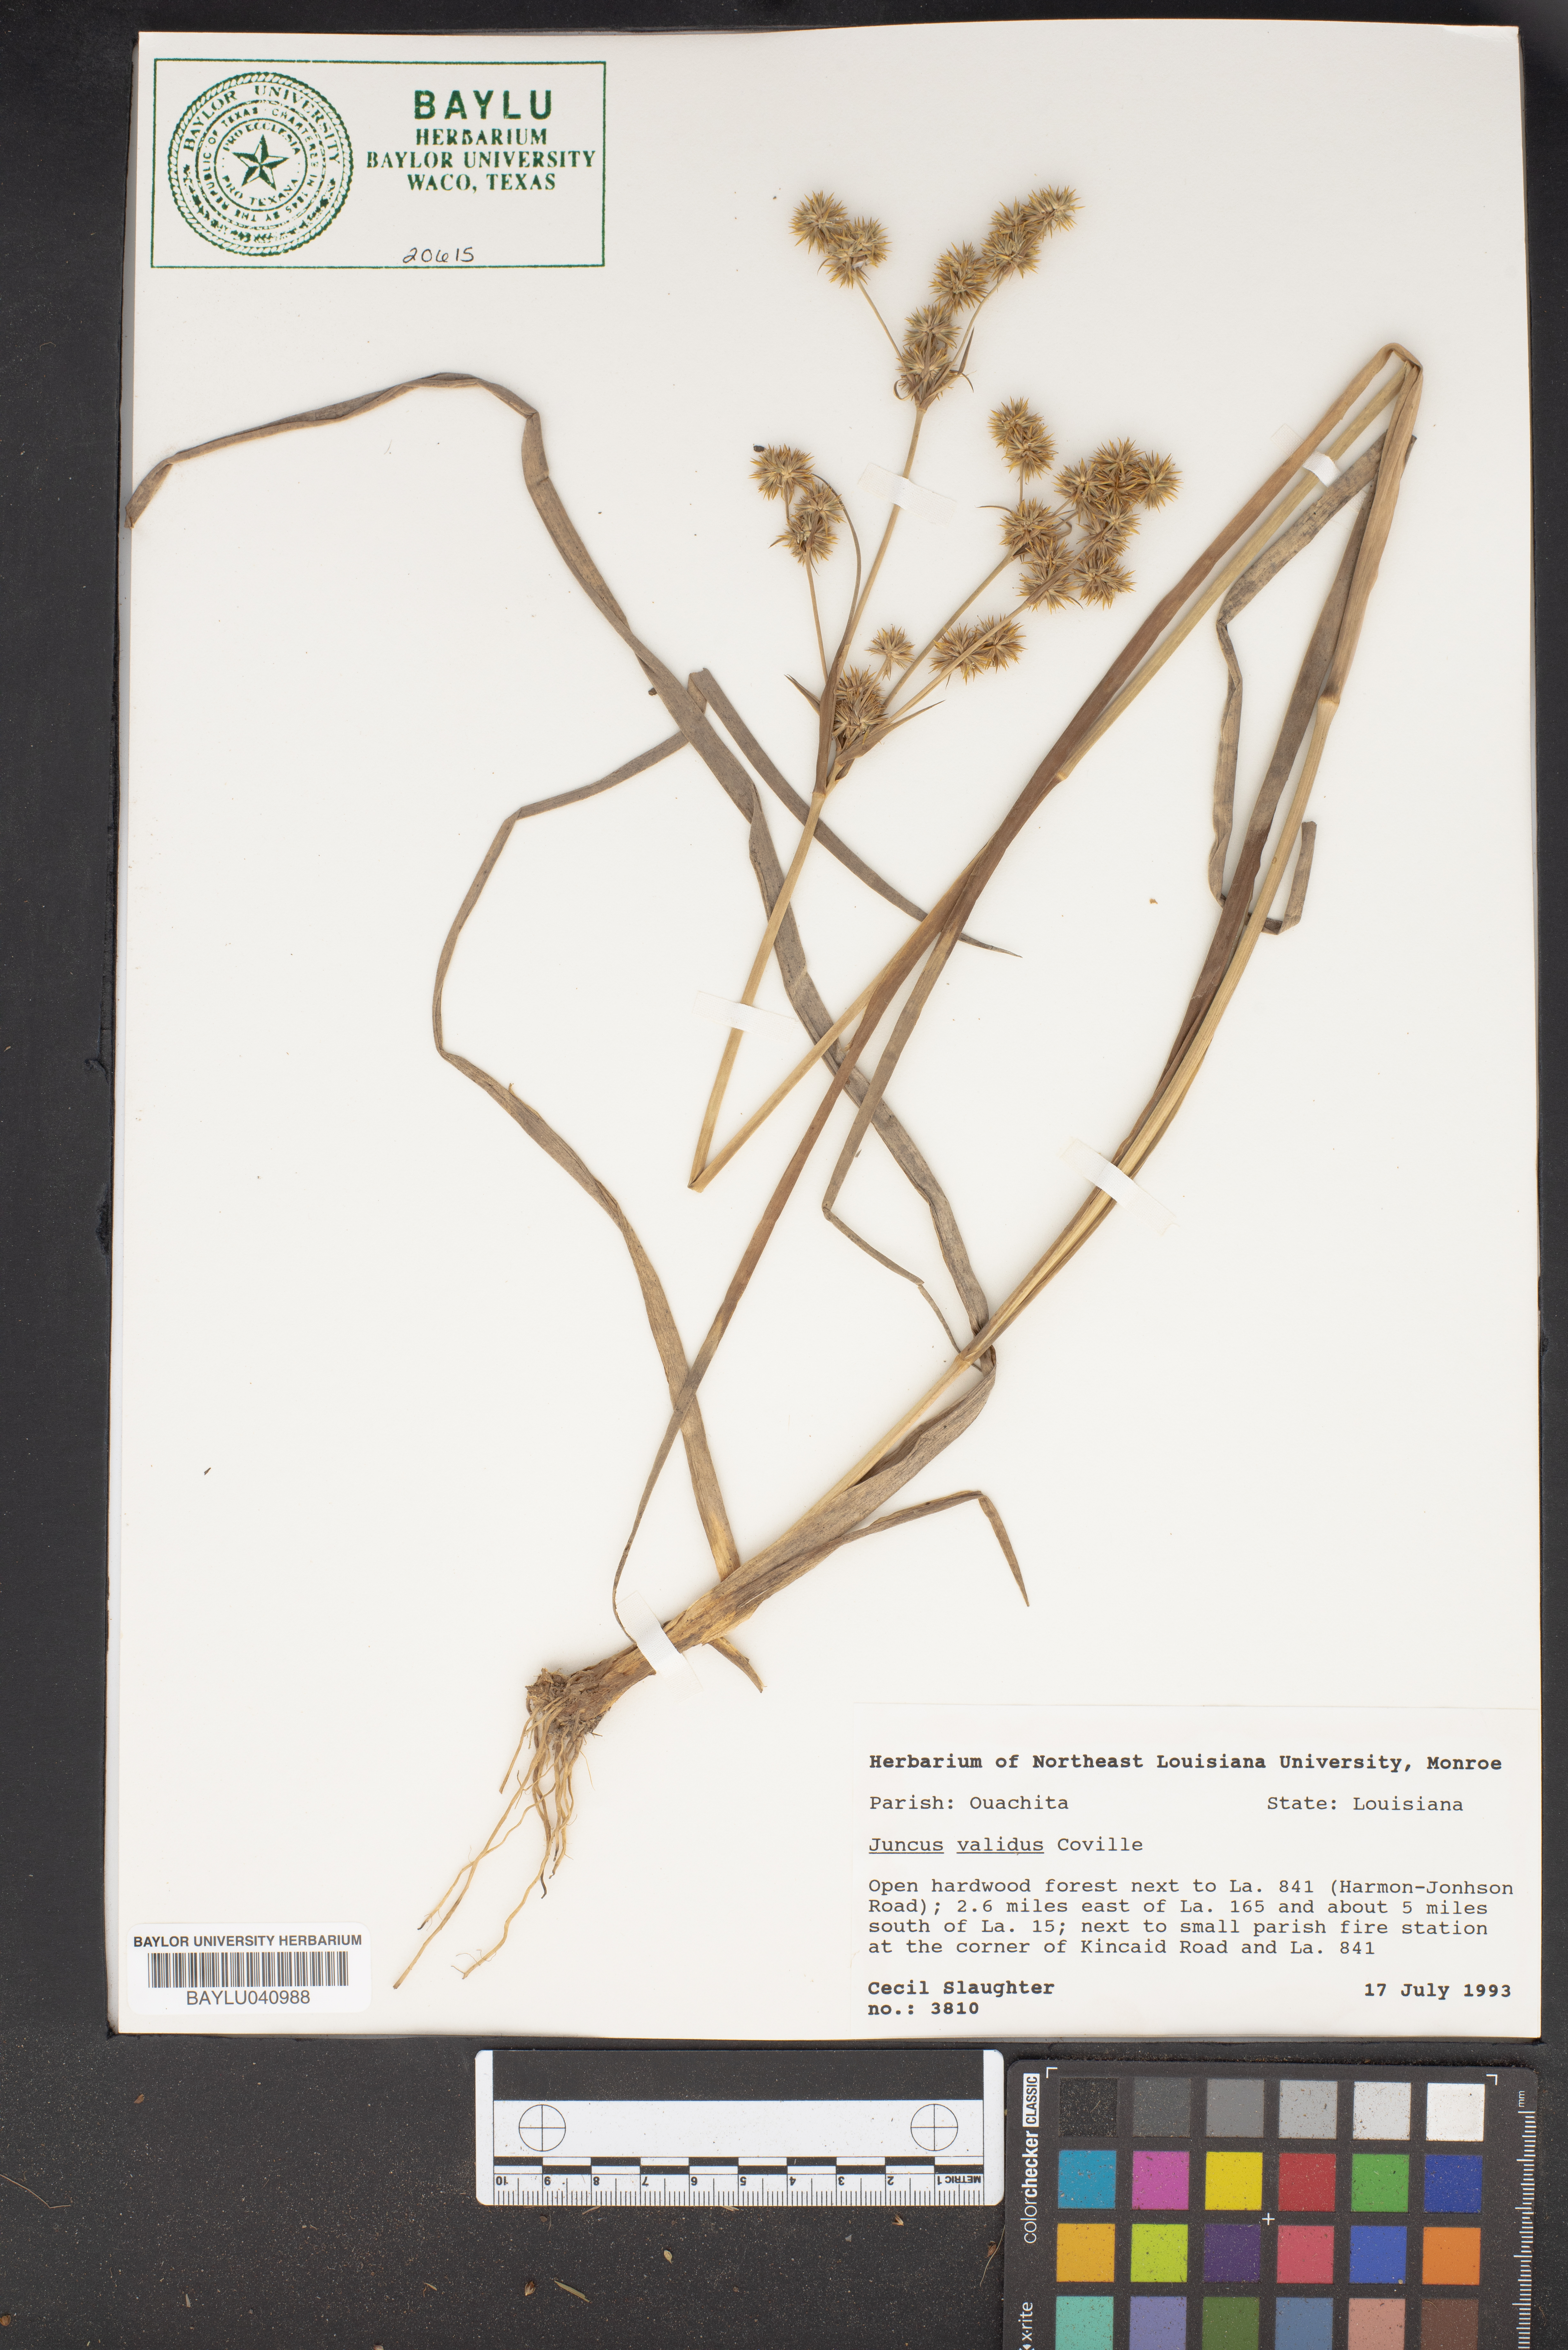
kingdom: Plantae
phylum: Tracheophyta
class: Liliopsida
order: Poales
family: Juncaceae
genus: Juncus
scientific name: Juncus validus
